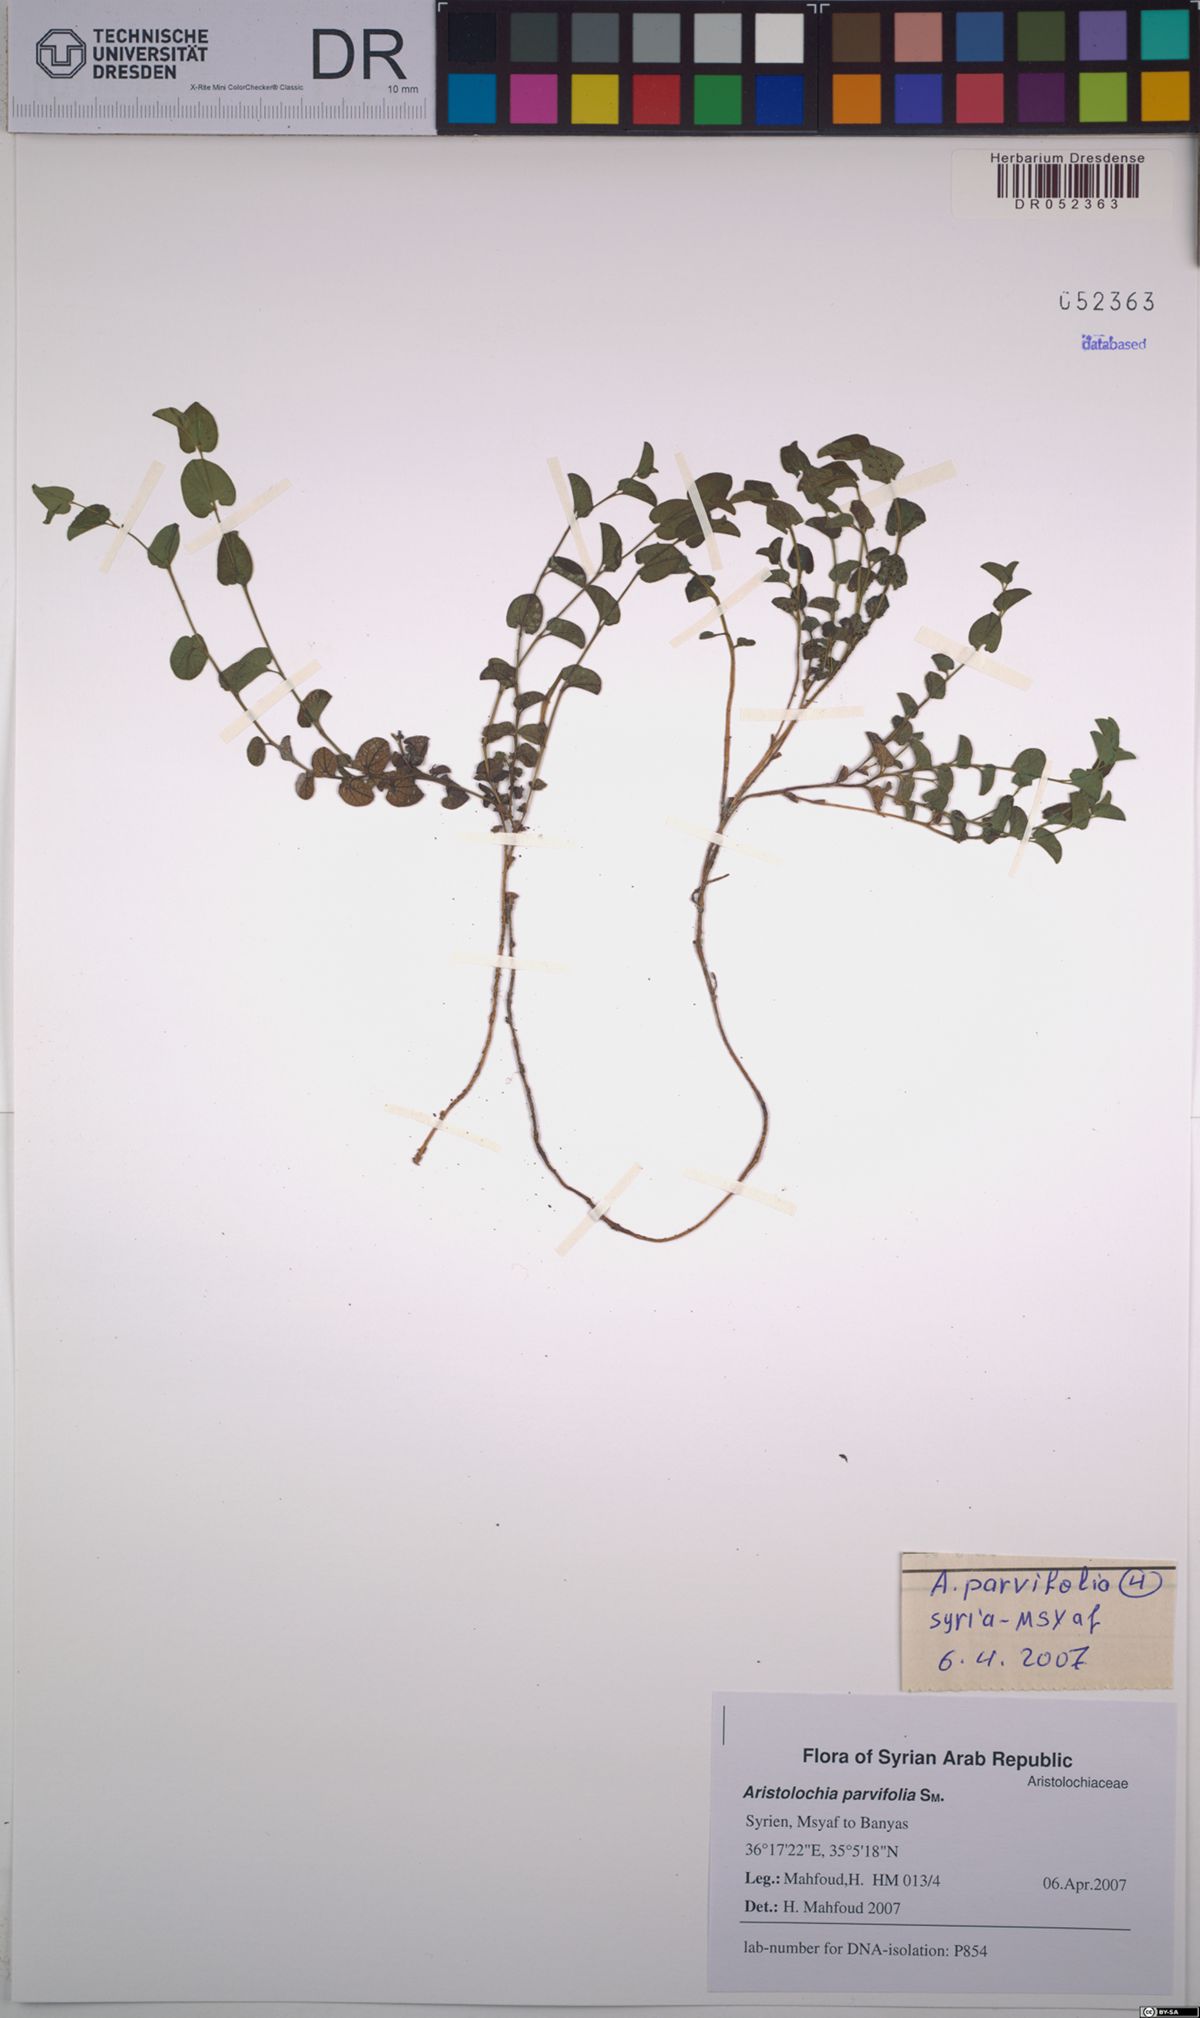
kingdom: Plantae
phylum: Tracheophyta
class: Magnoliopsida
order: Piperales
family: Aristolochiaceae
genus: Aristolochia
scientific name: Aristolochia parvifolia
